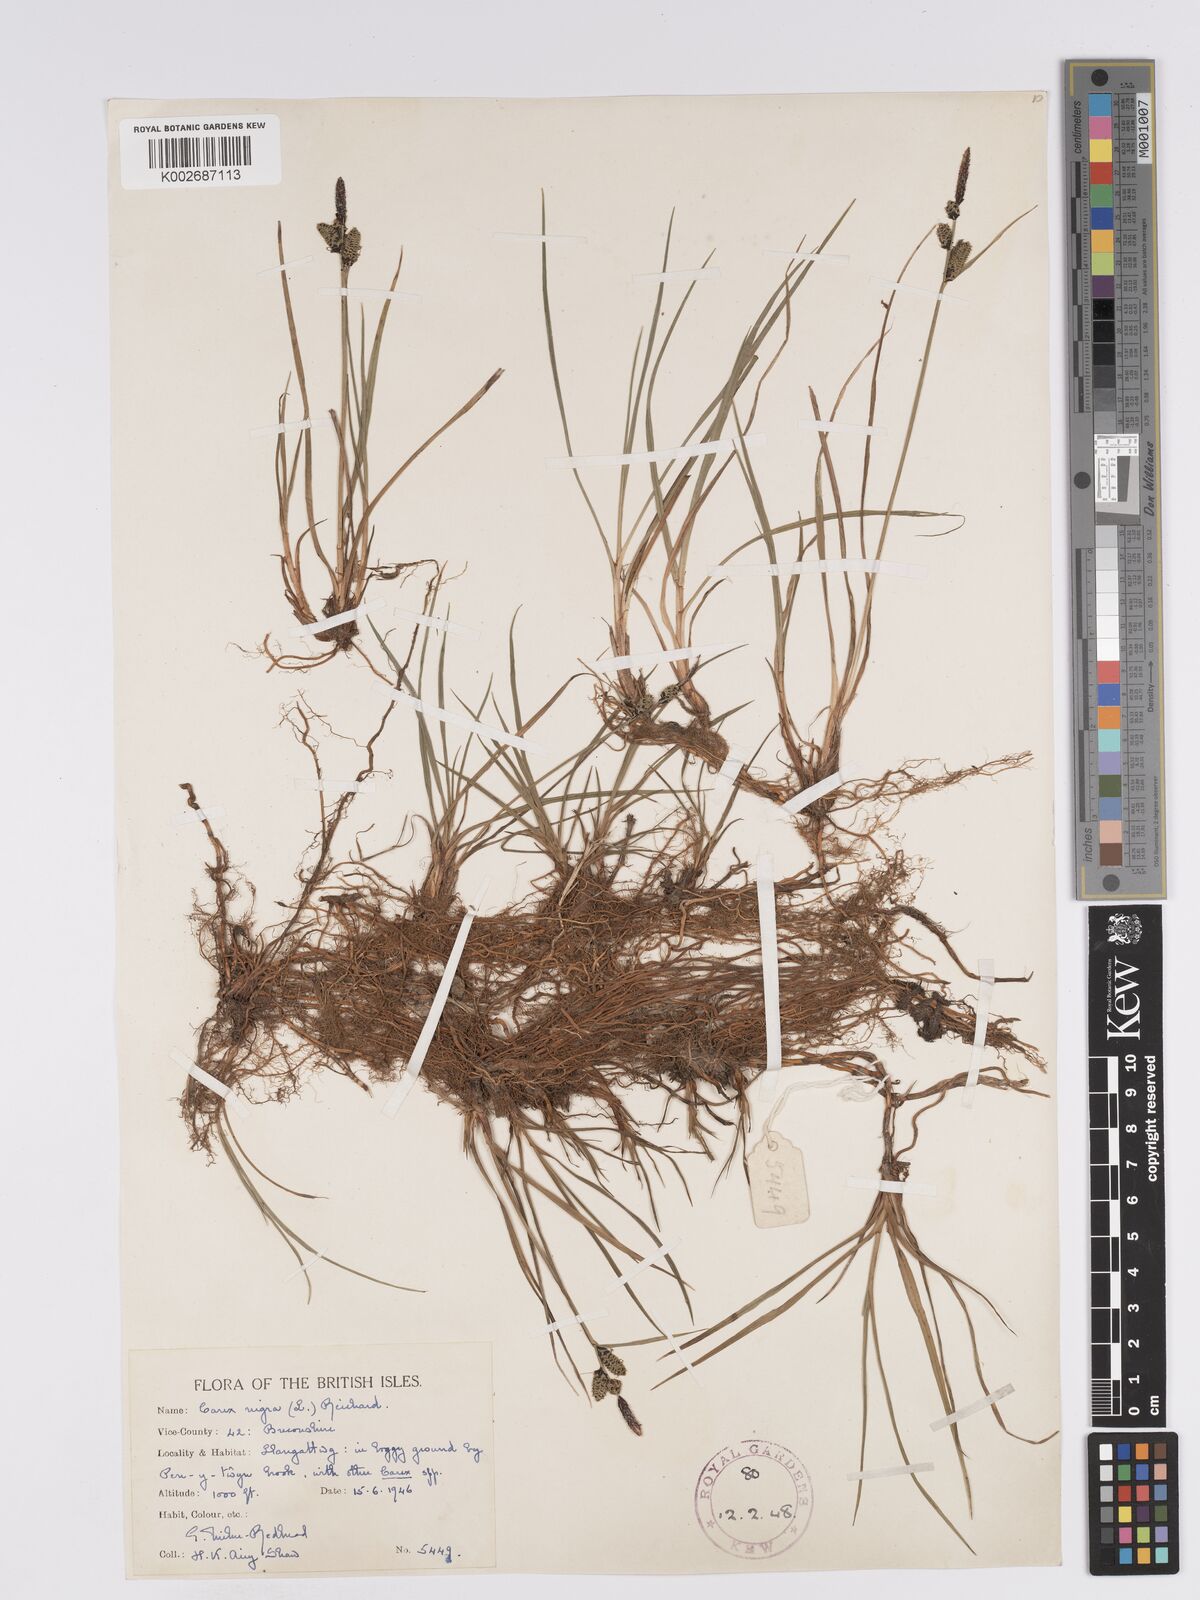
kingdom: Plantae
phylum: Tracheophyta
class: Liliopsida
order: Poales
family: Cyperaceae
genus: Carex
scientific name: Carex nigra
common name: Common sedge
